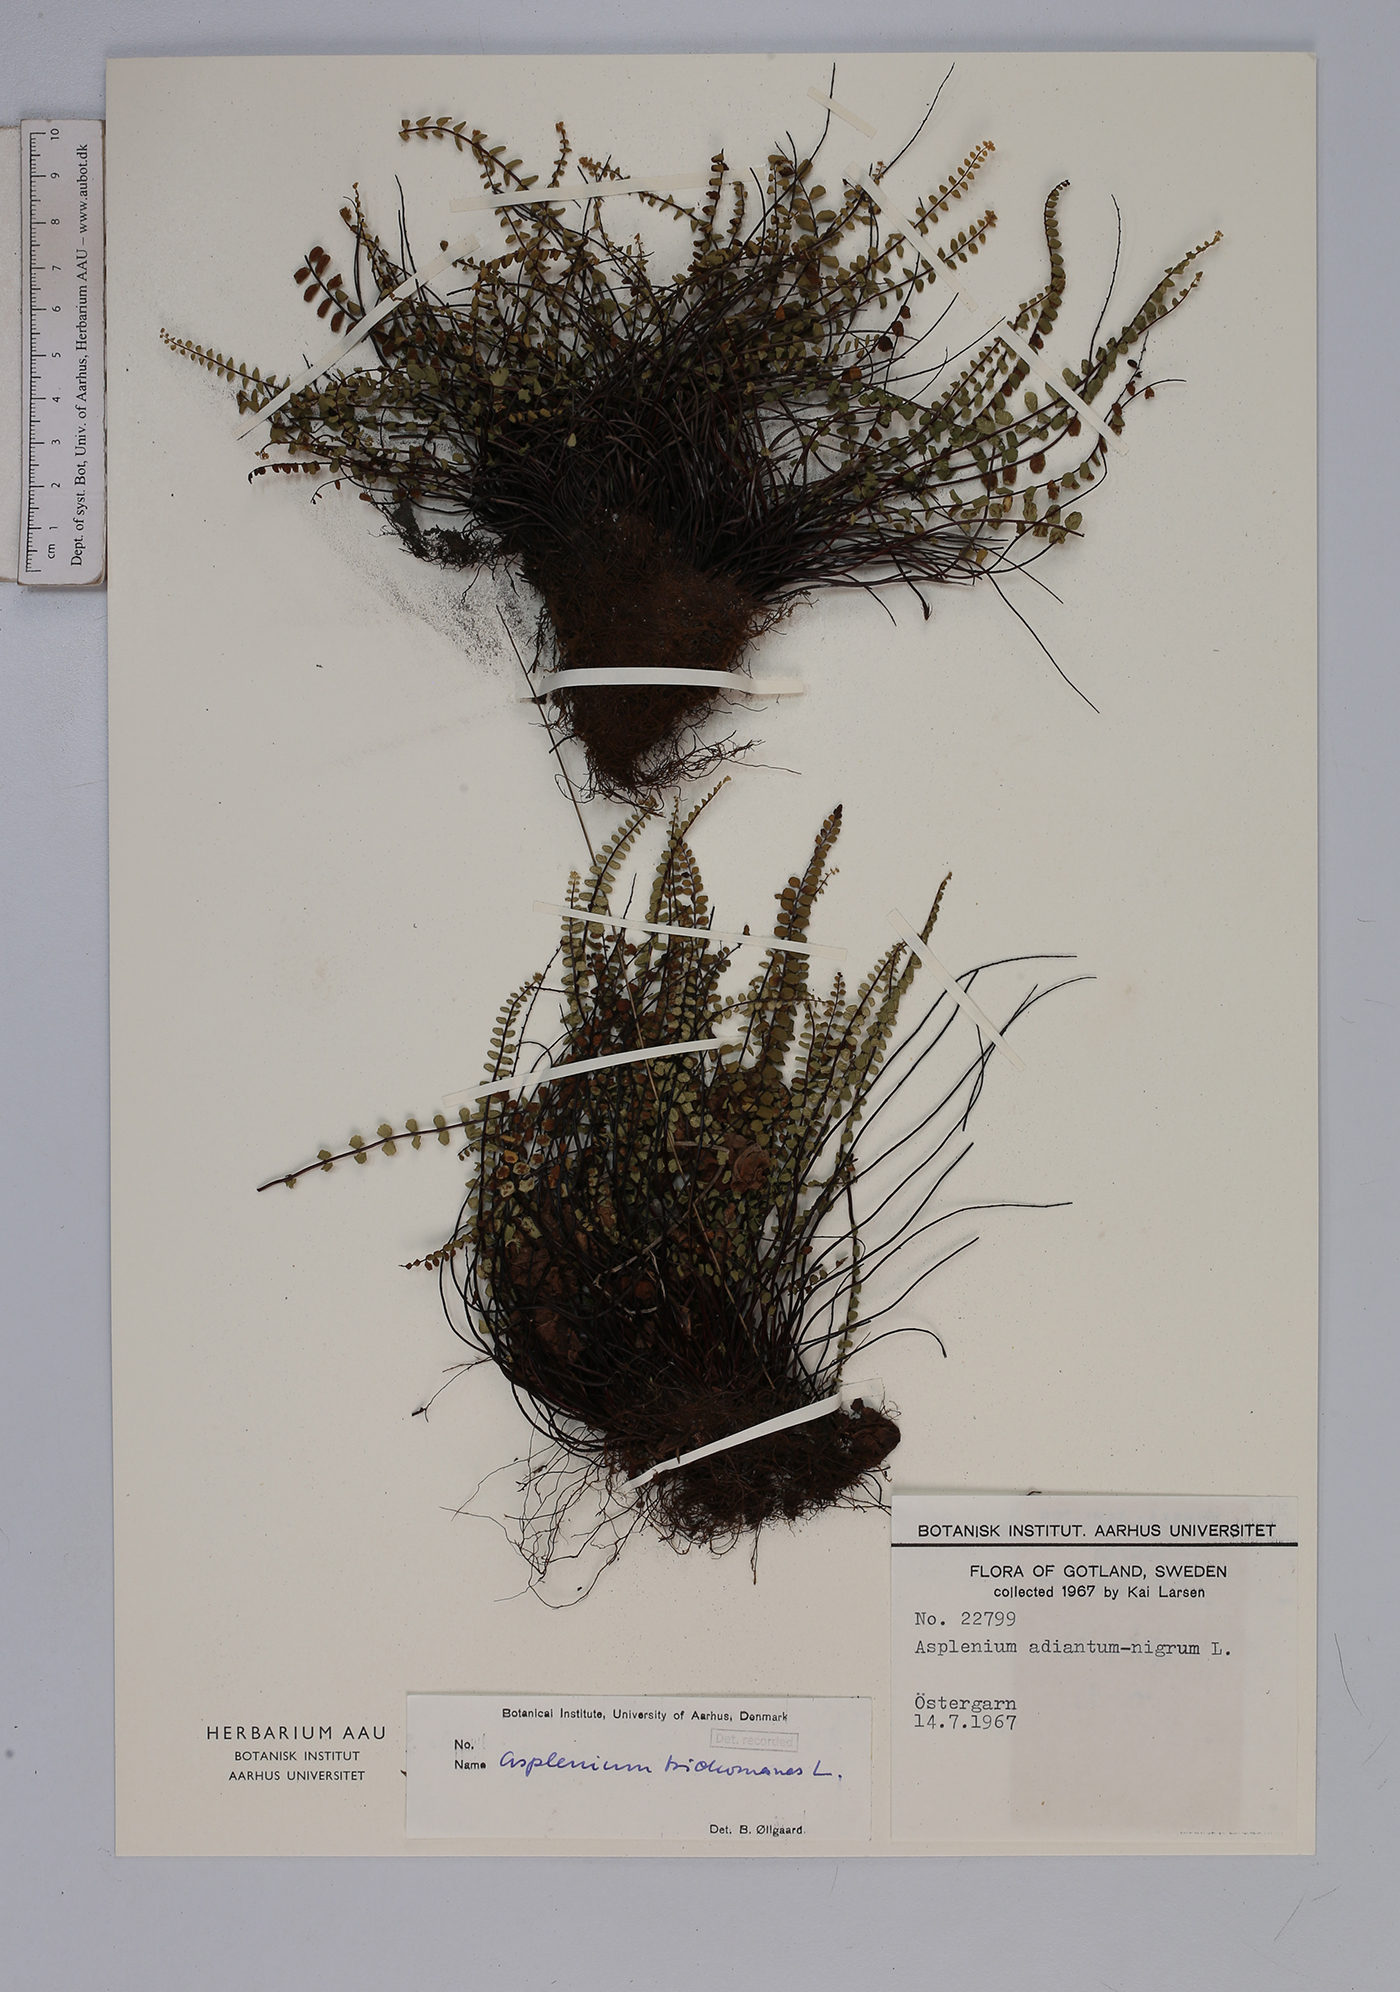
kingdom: Plantae
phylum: Tracheophyta
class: Polypodiopsida
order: Polypodiales
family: Aspleniaceae
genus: Asplenium
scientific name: Asplenium trichomanes
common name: Maidenhair spleenwort
